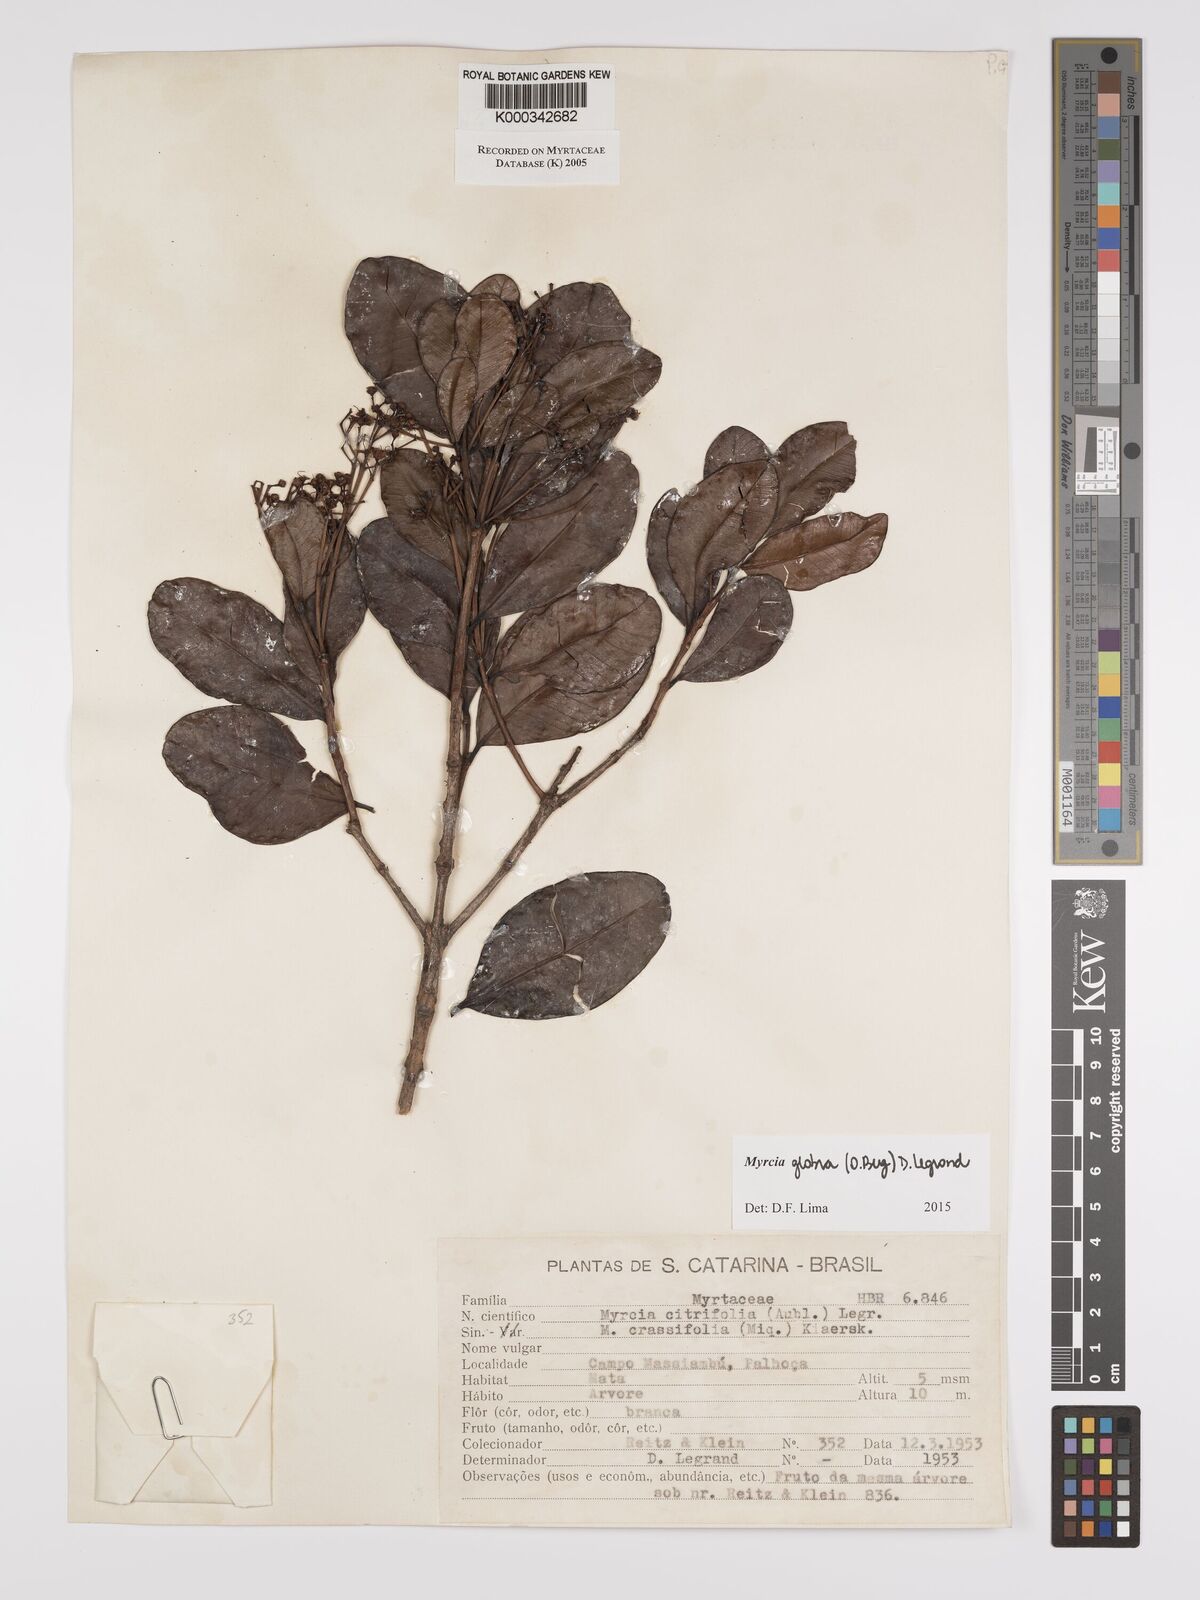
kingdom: Plantae
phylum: Tracheophyta
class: Magnoliopsida
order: Myrtales
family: Myrtaceae
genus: Myrcia
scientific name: Myrcia guianensis
